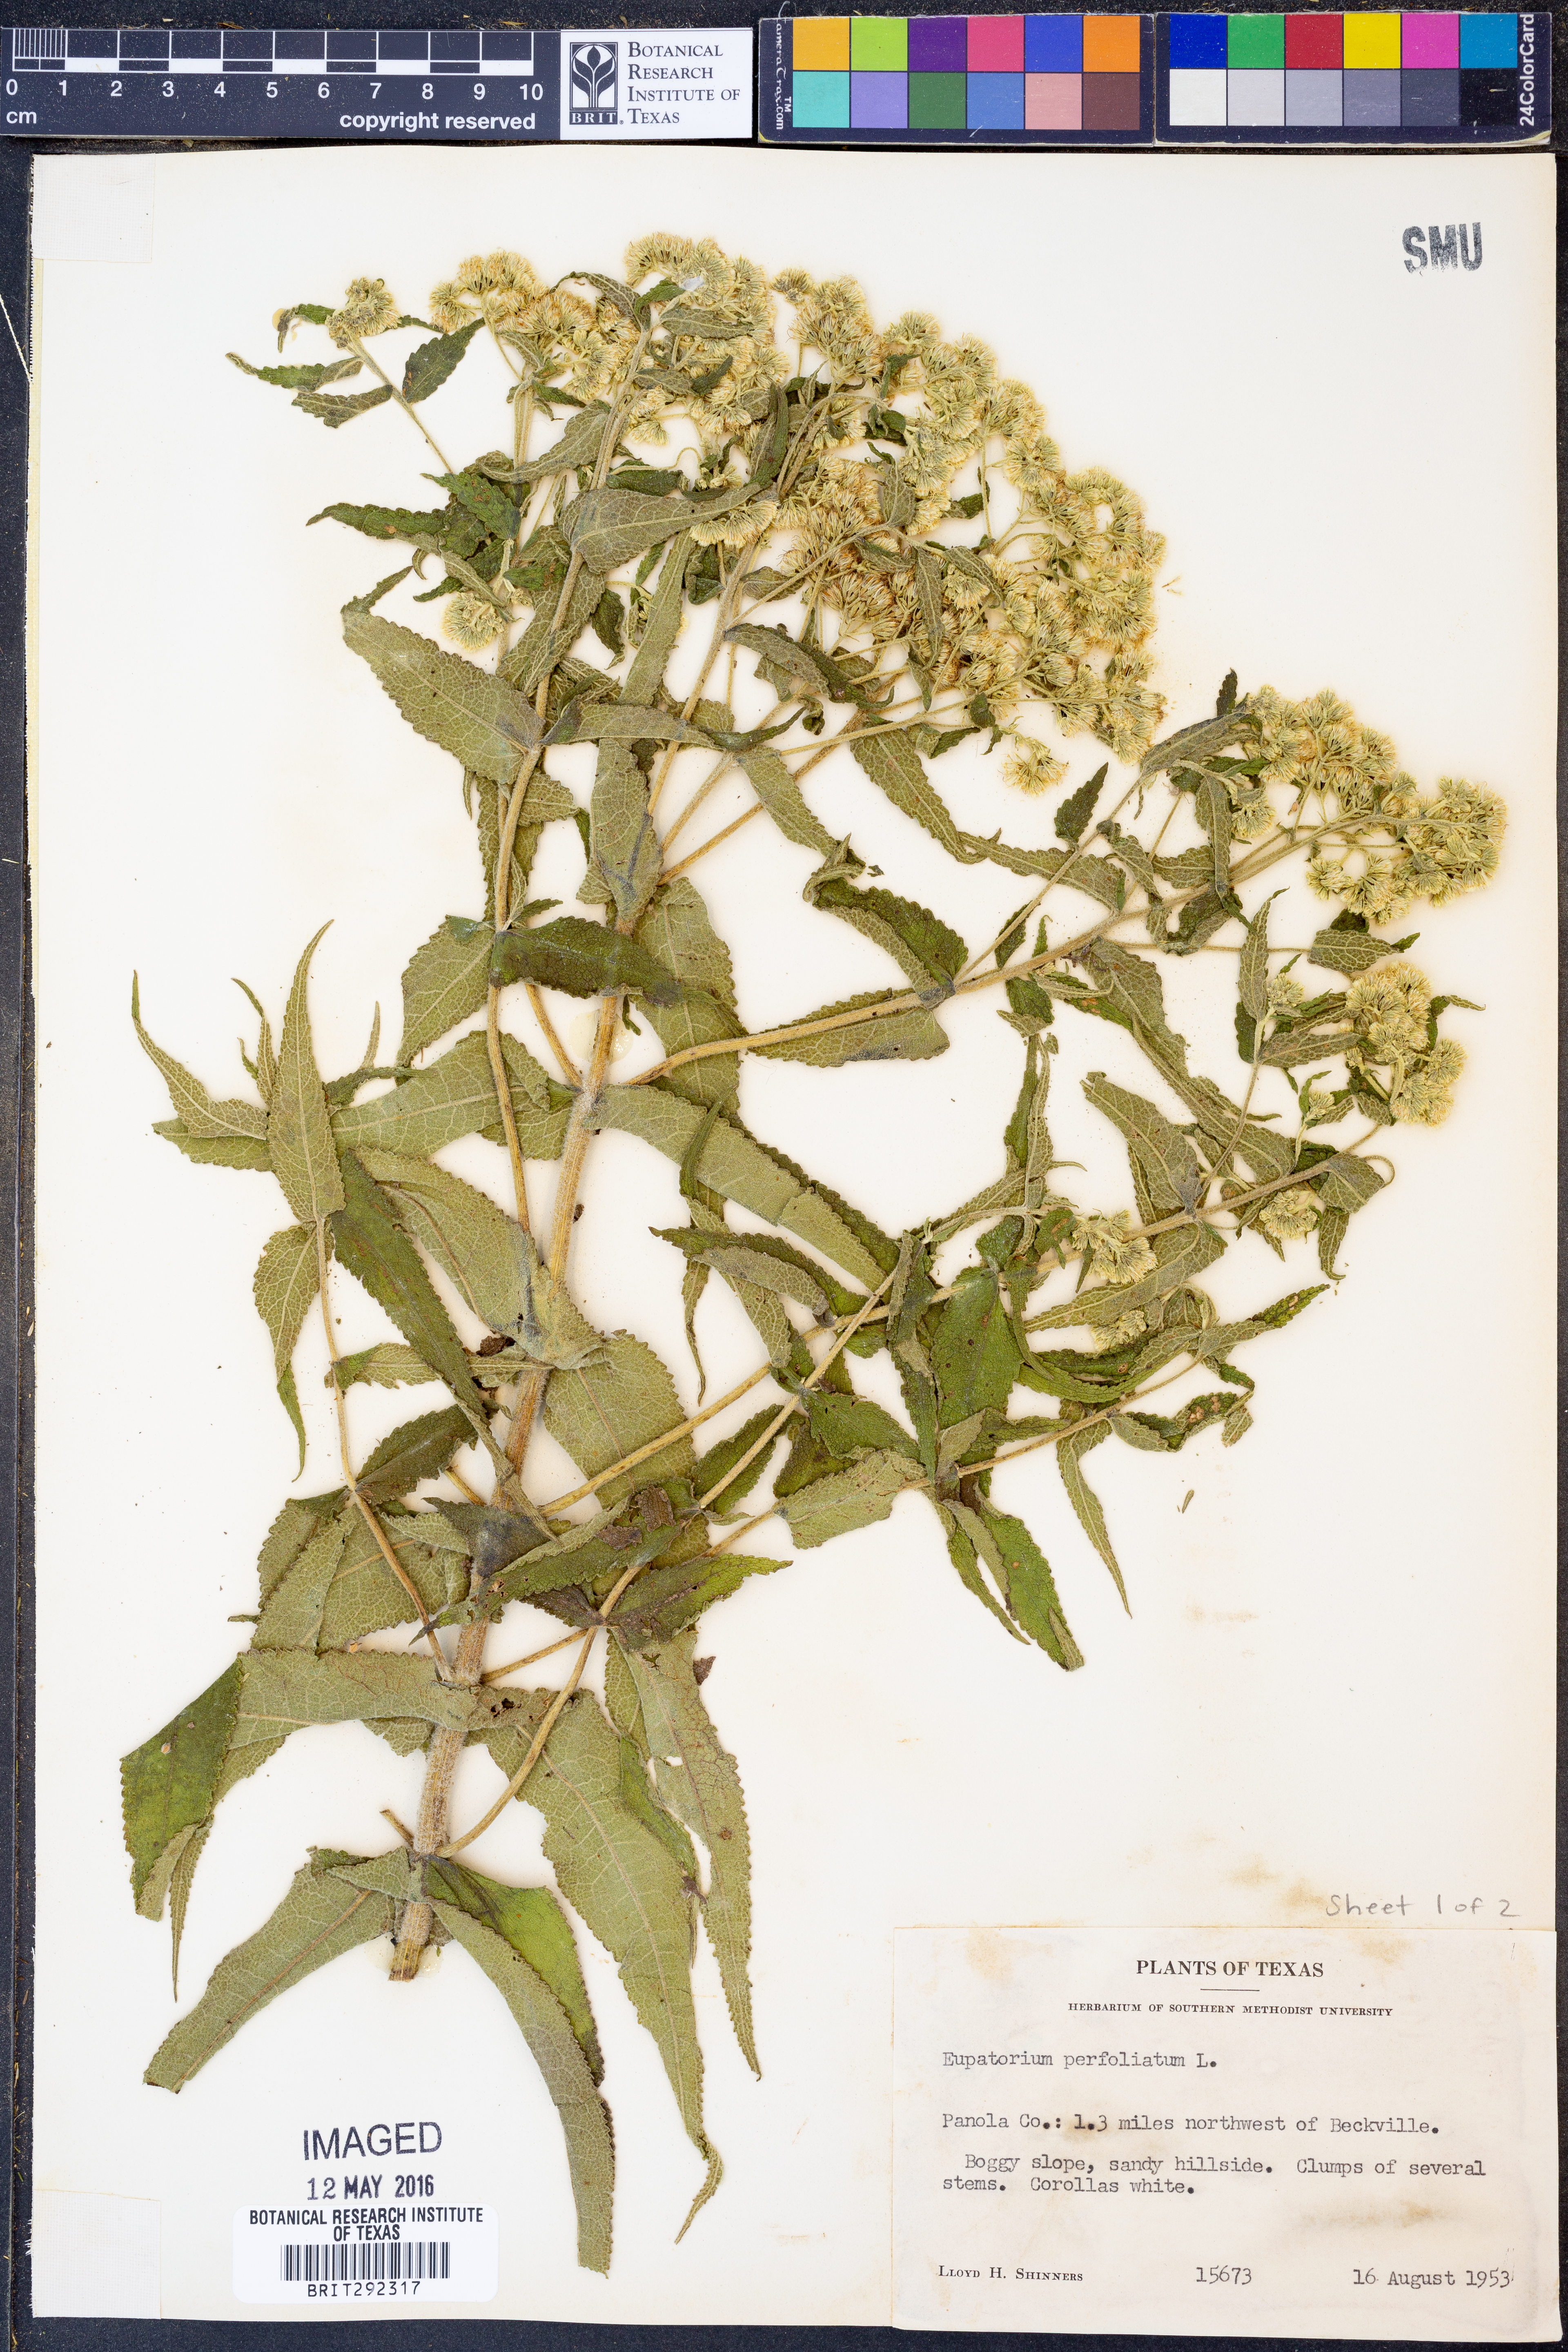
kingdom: Plantae
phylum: Tracheophyta
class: Magnoliopsida
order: Asterales
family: Asteraceae
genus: Eupatorium
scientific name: Eupatorium perfoliatum
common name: Boneset
